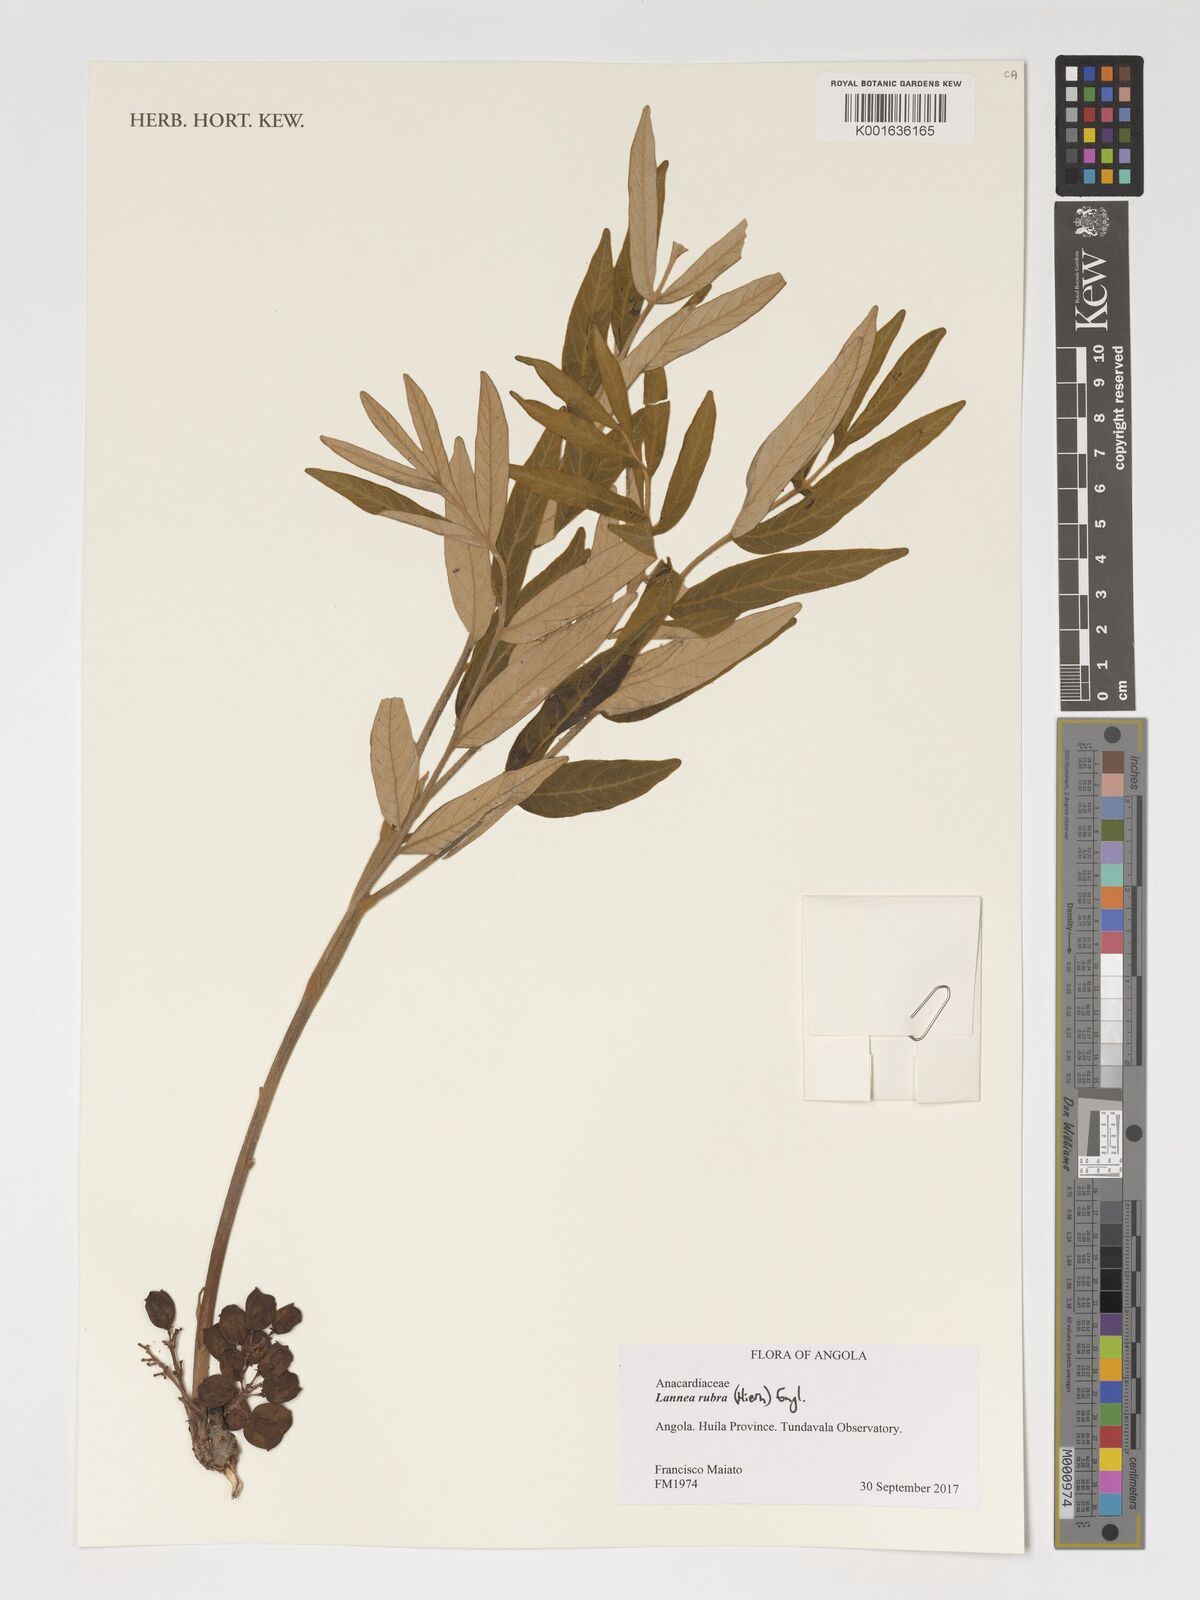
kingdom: Plantae
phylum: Tracheophyta
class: Magnoliopsida
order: Sapindales
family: Anacardiaceae
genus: Lannea
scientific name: Lannea rubra
